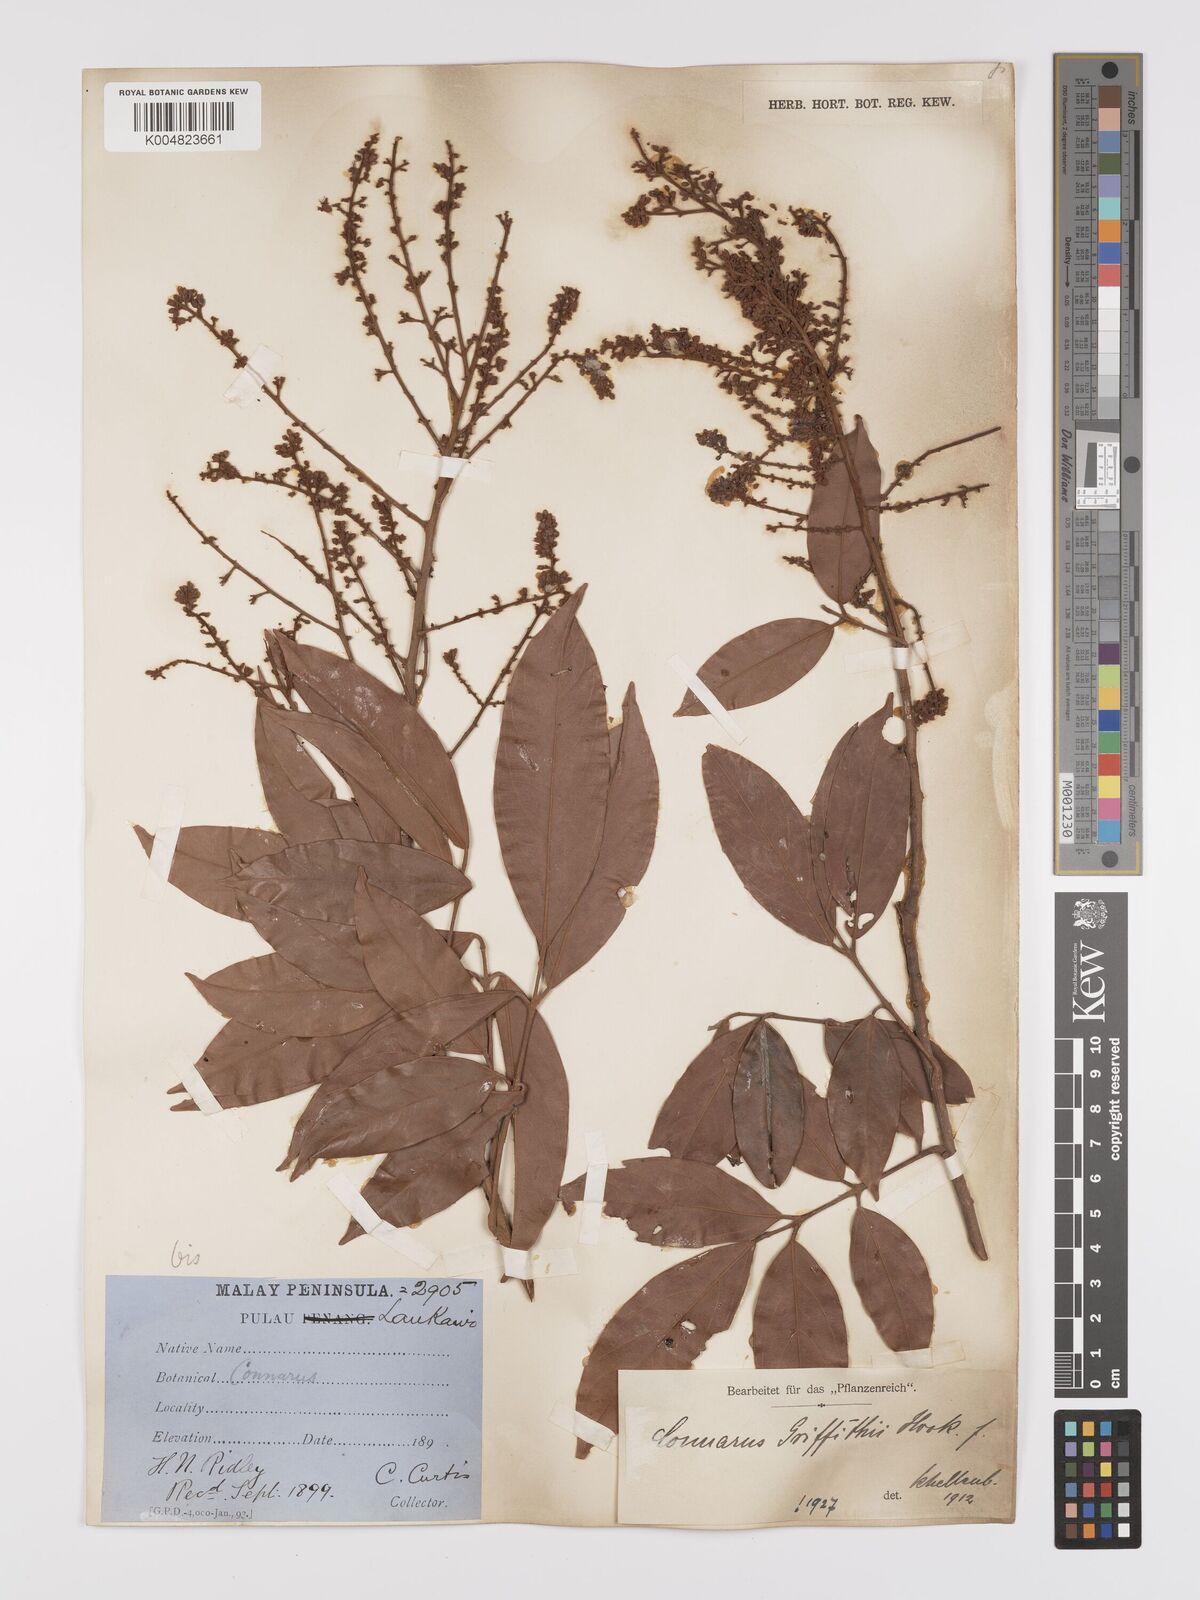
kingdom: Plantae
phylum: Tracheophyta
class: Magnoliopsida
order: Oxalidales
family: Connaraceae
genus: Connarus
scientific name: Connarus semidecandrus
